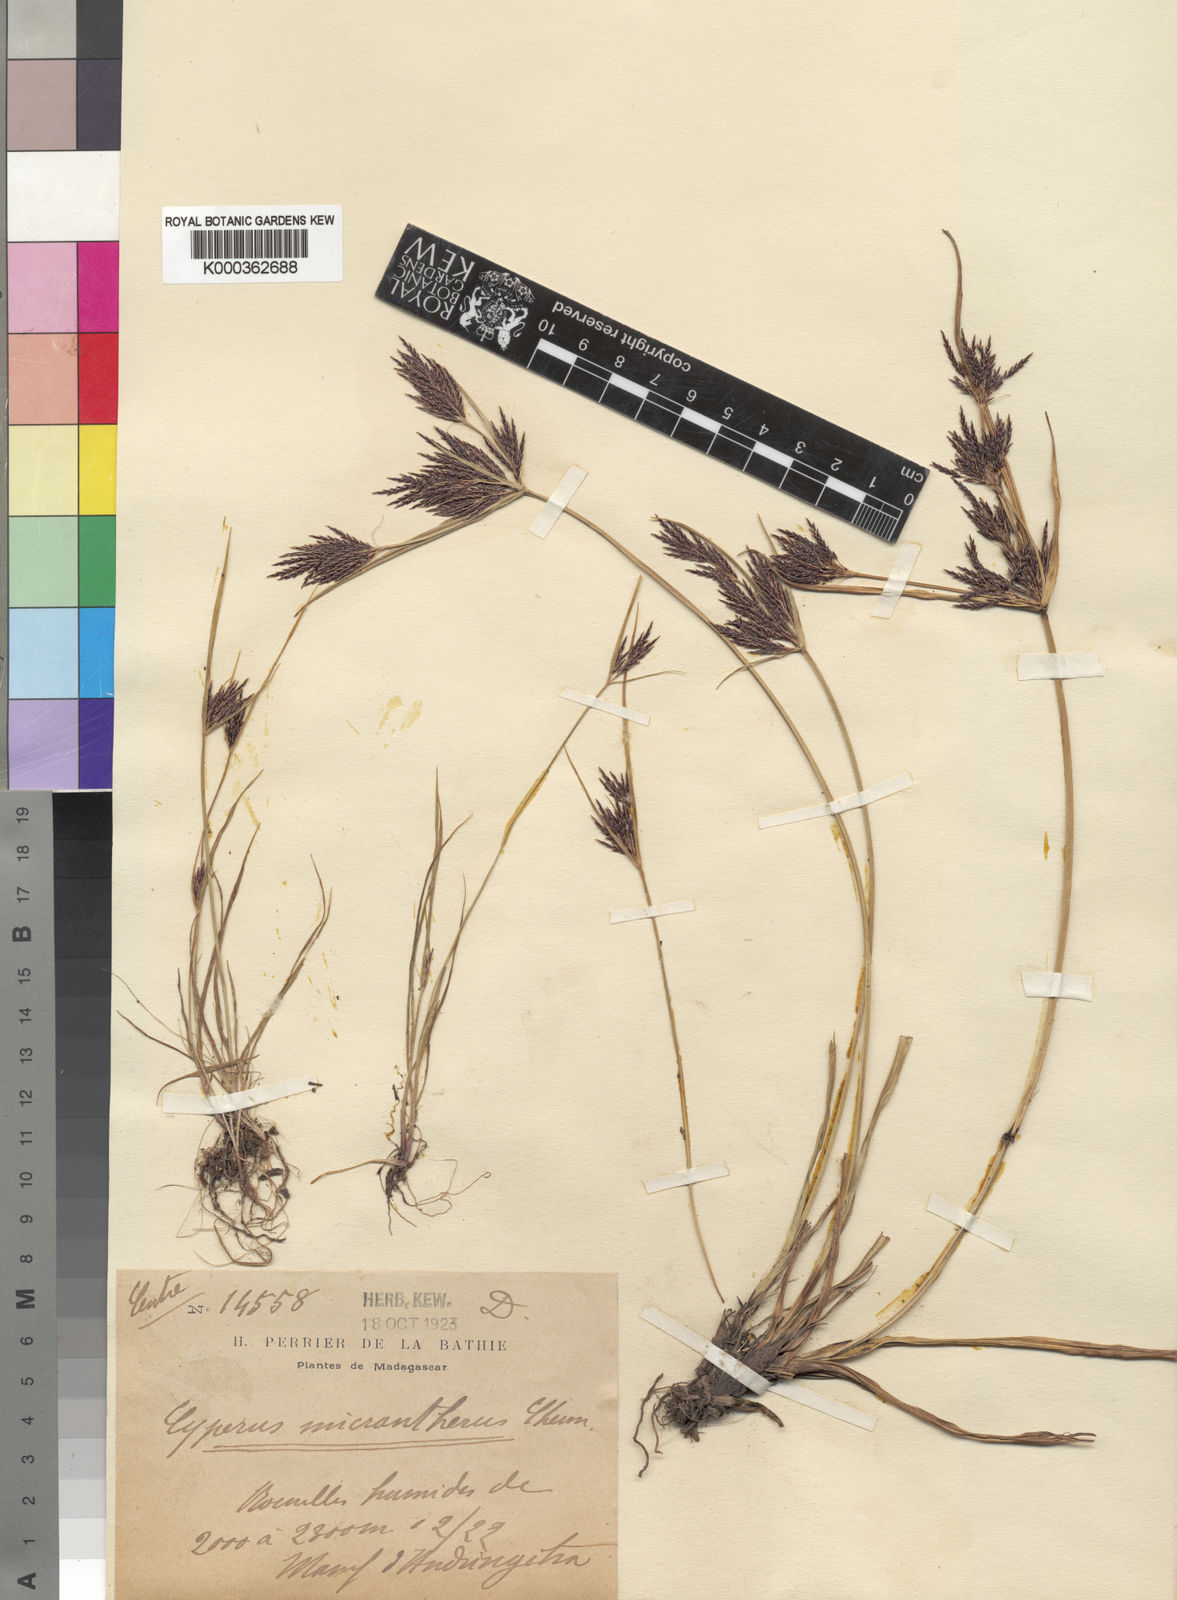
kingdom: Plantae
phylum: Tracheophyta
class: Liliopsida
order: Poales
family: Cyperaceae
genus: Cyperus
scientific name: Cyperus micrantherus
